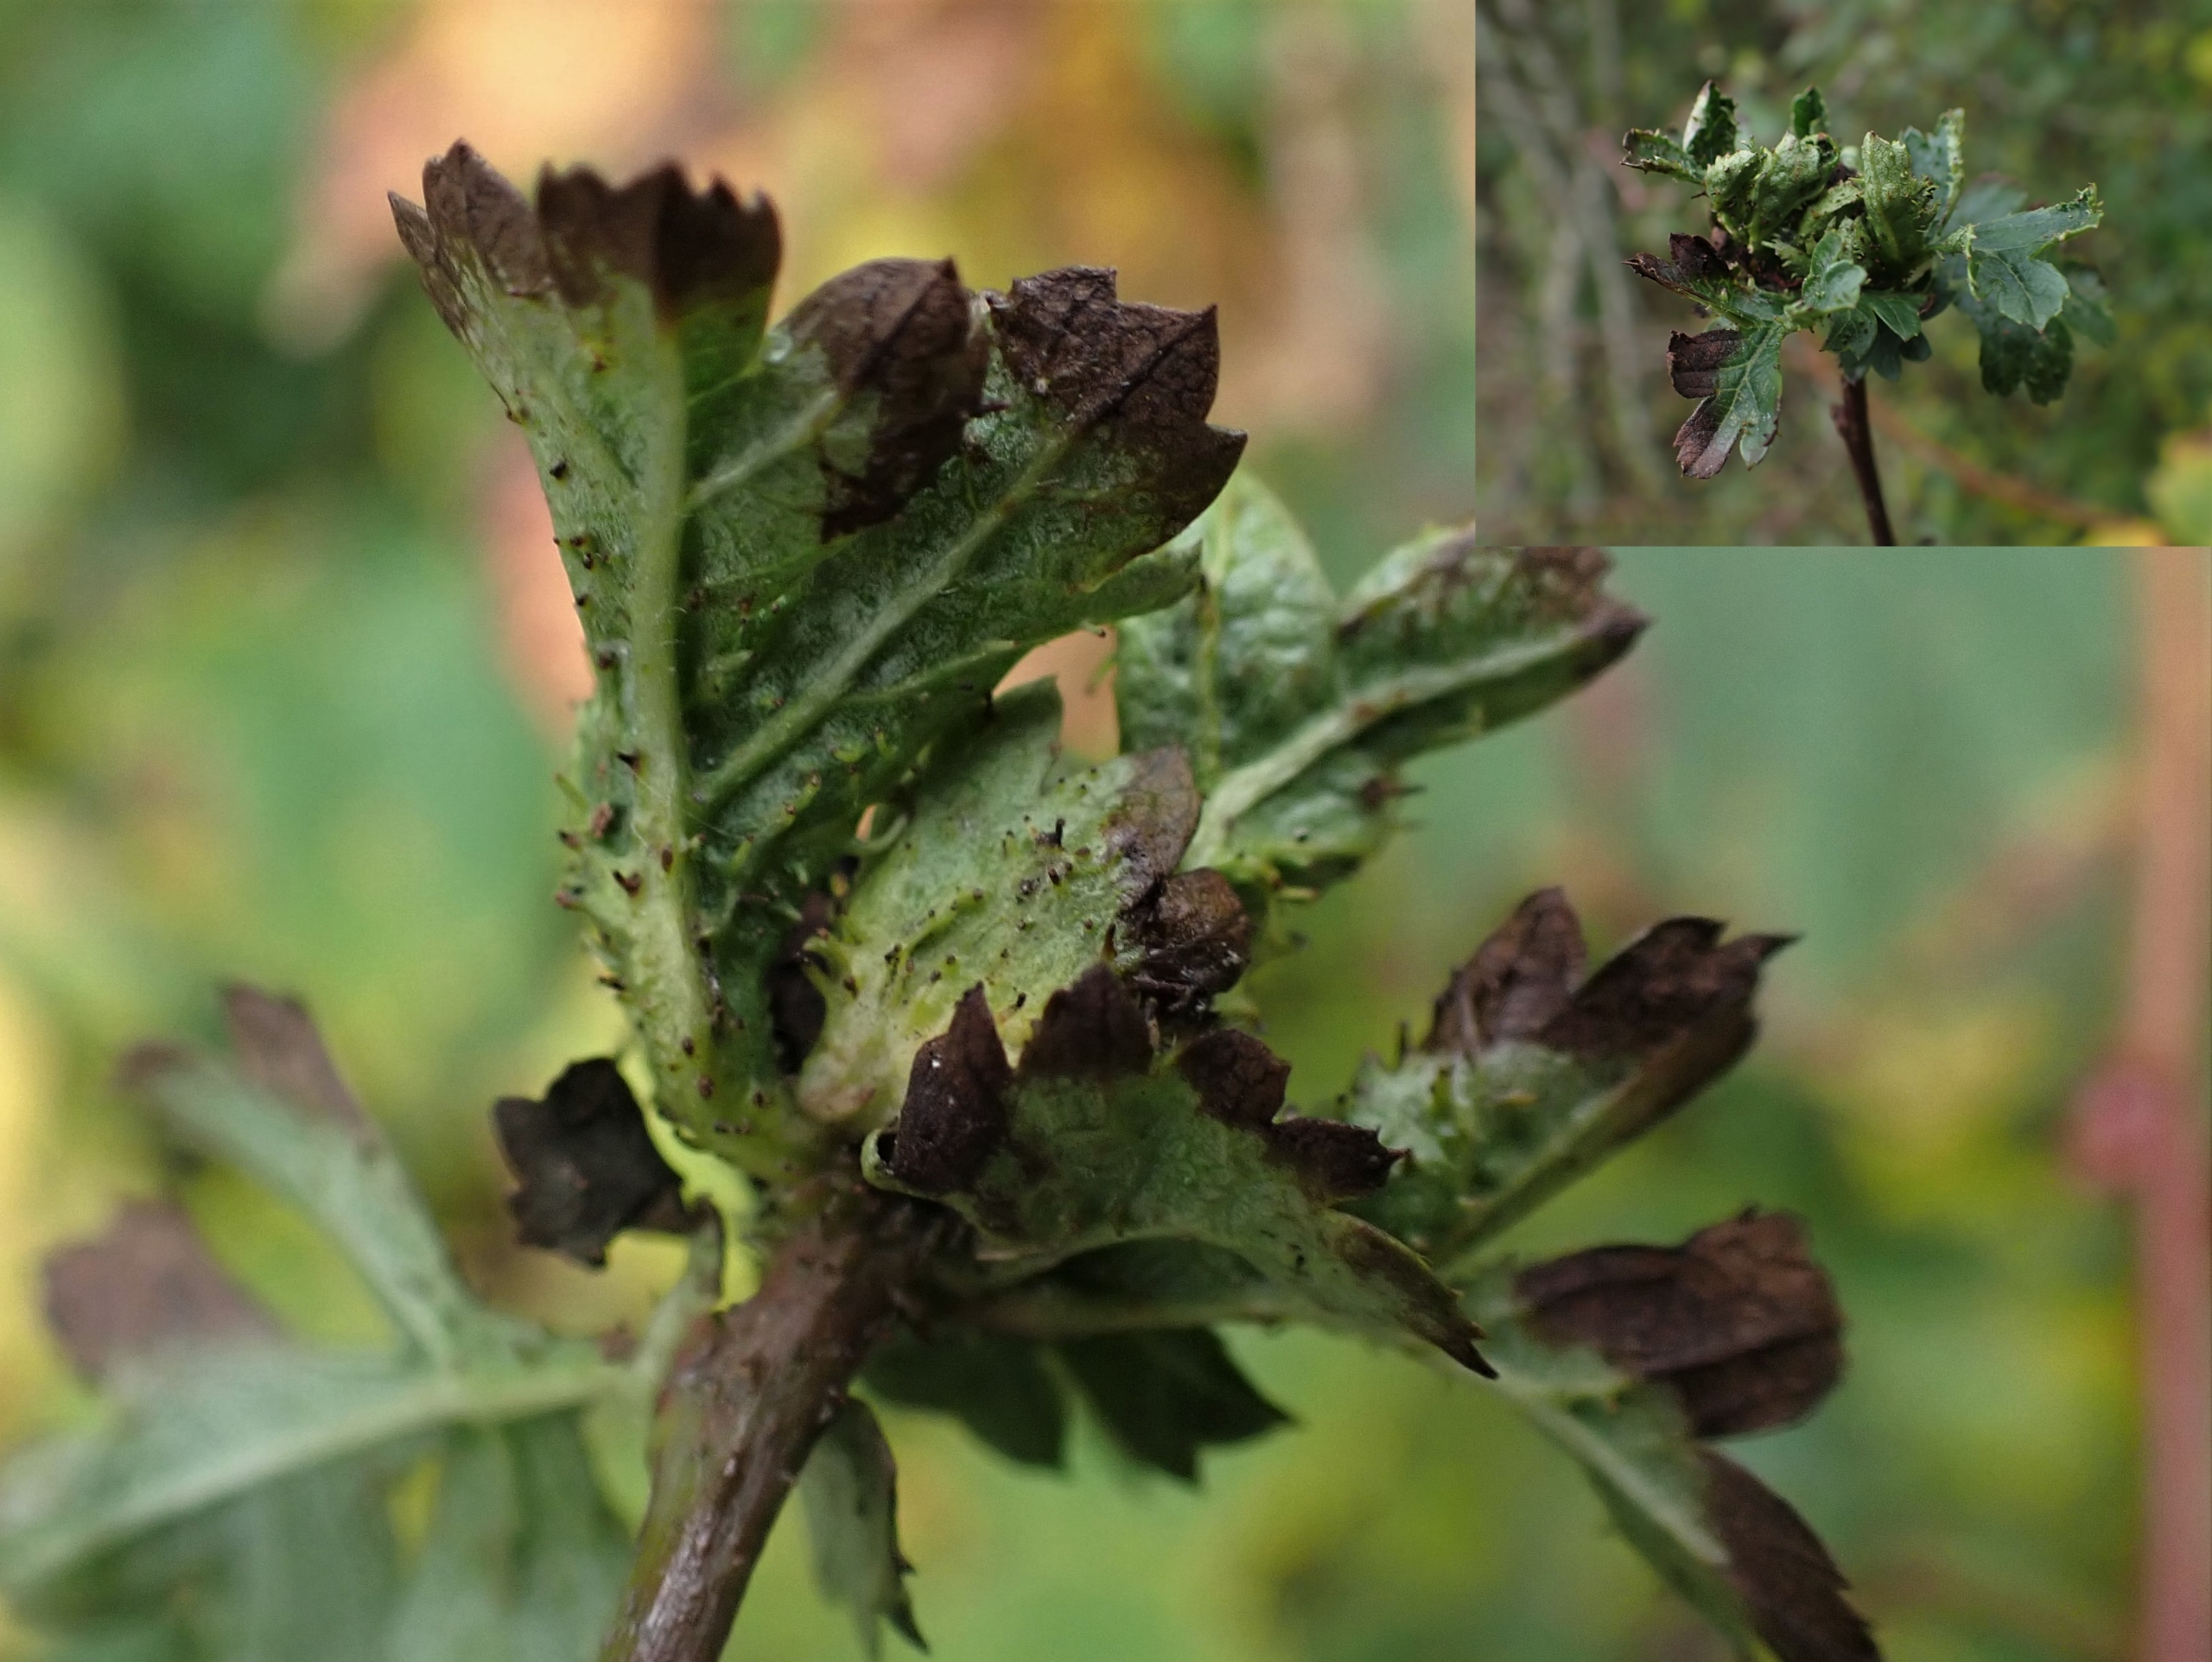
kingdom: Animalia
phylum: Arthropoda
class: Insecta
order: Diptera
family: Cecidomyiidae
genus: Dasineura
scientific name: Dasineura crataegi
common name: Tjørnerosetgalmyg
